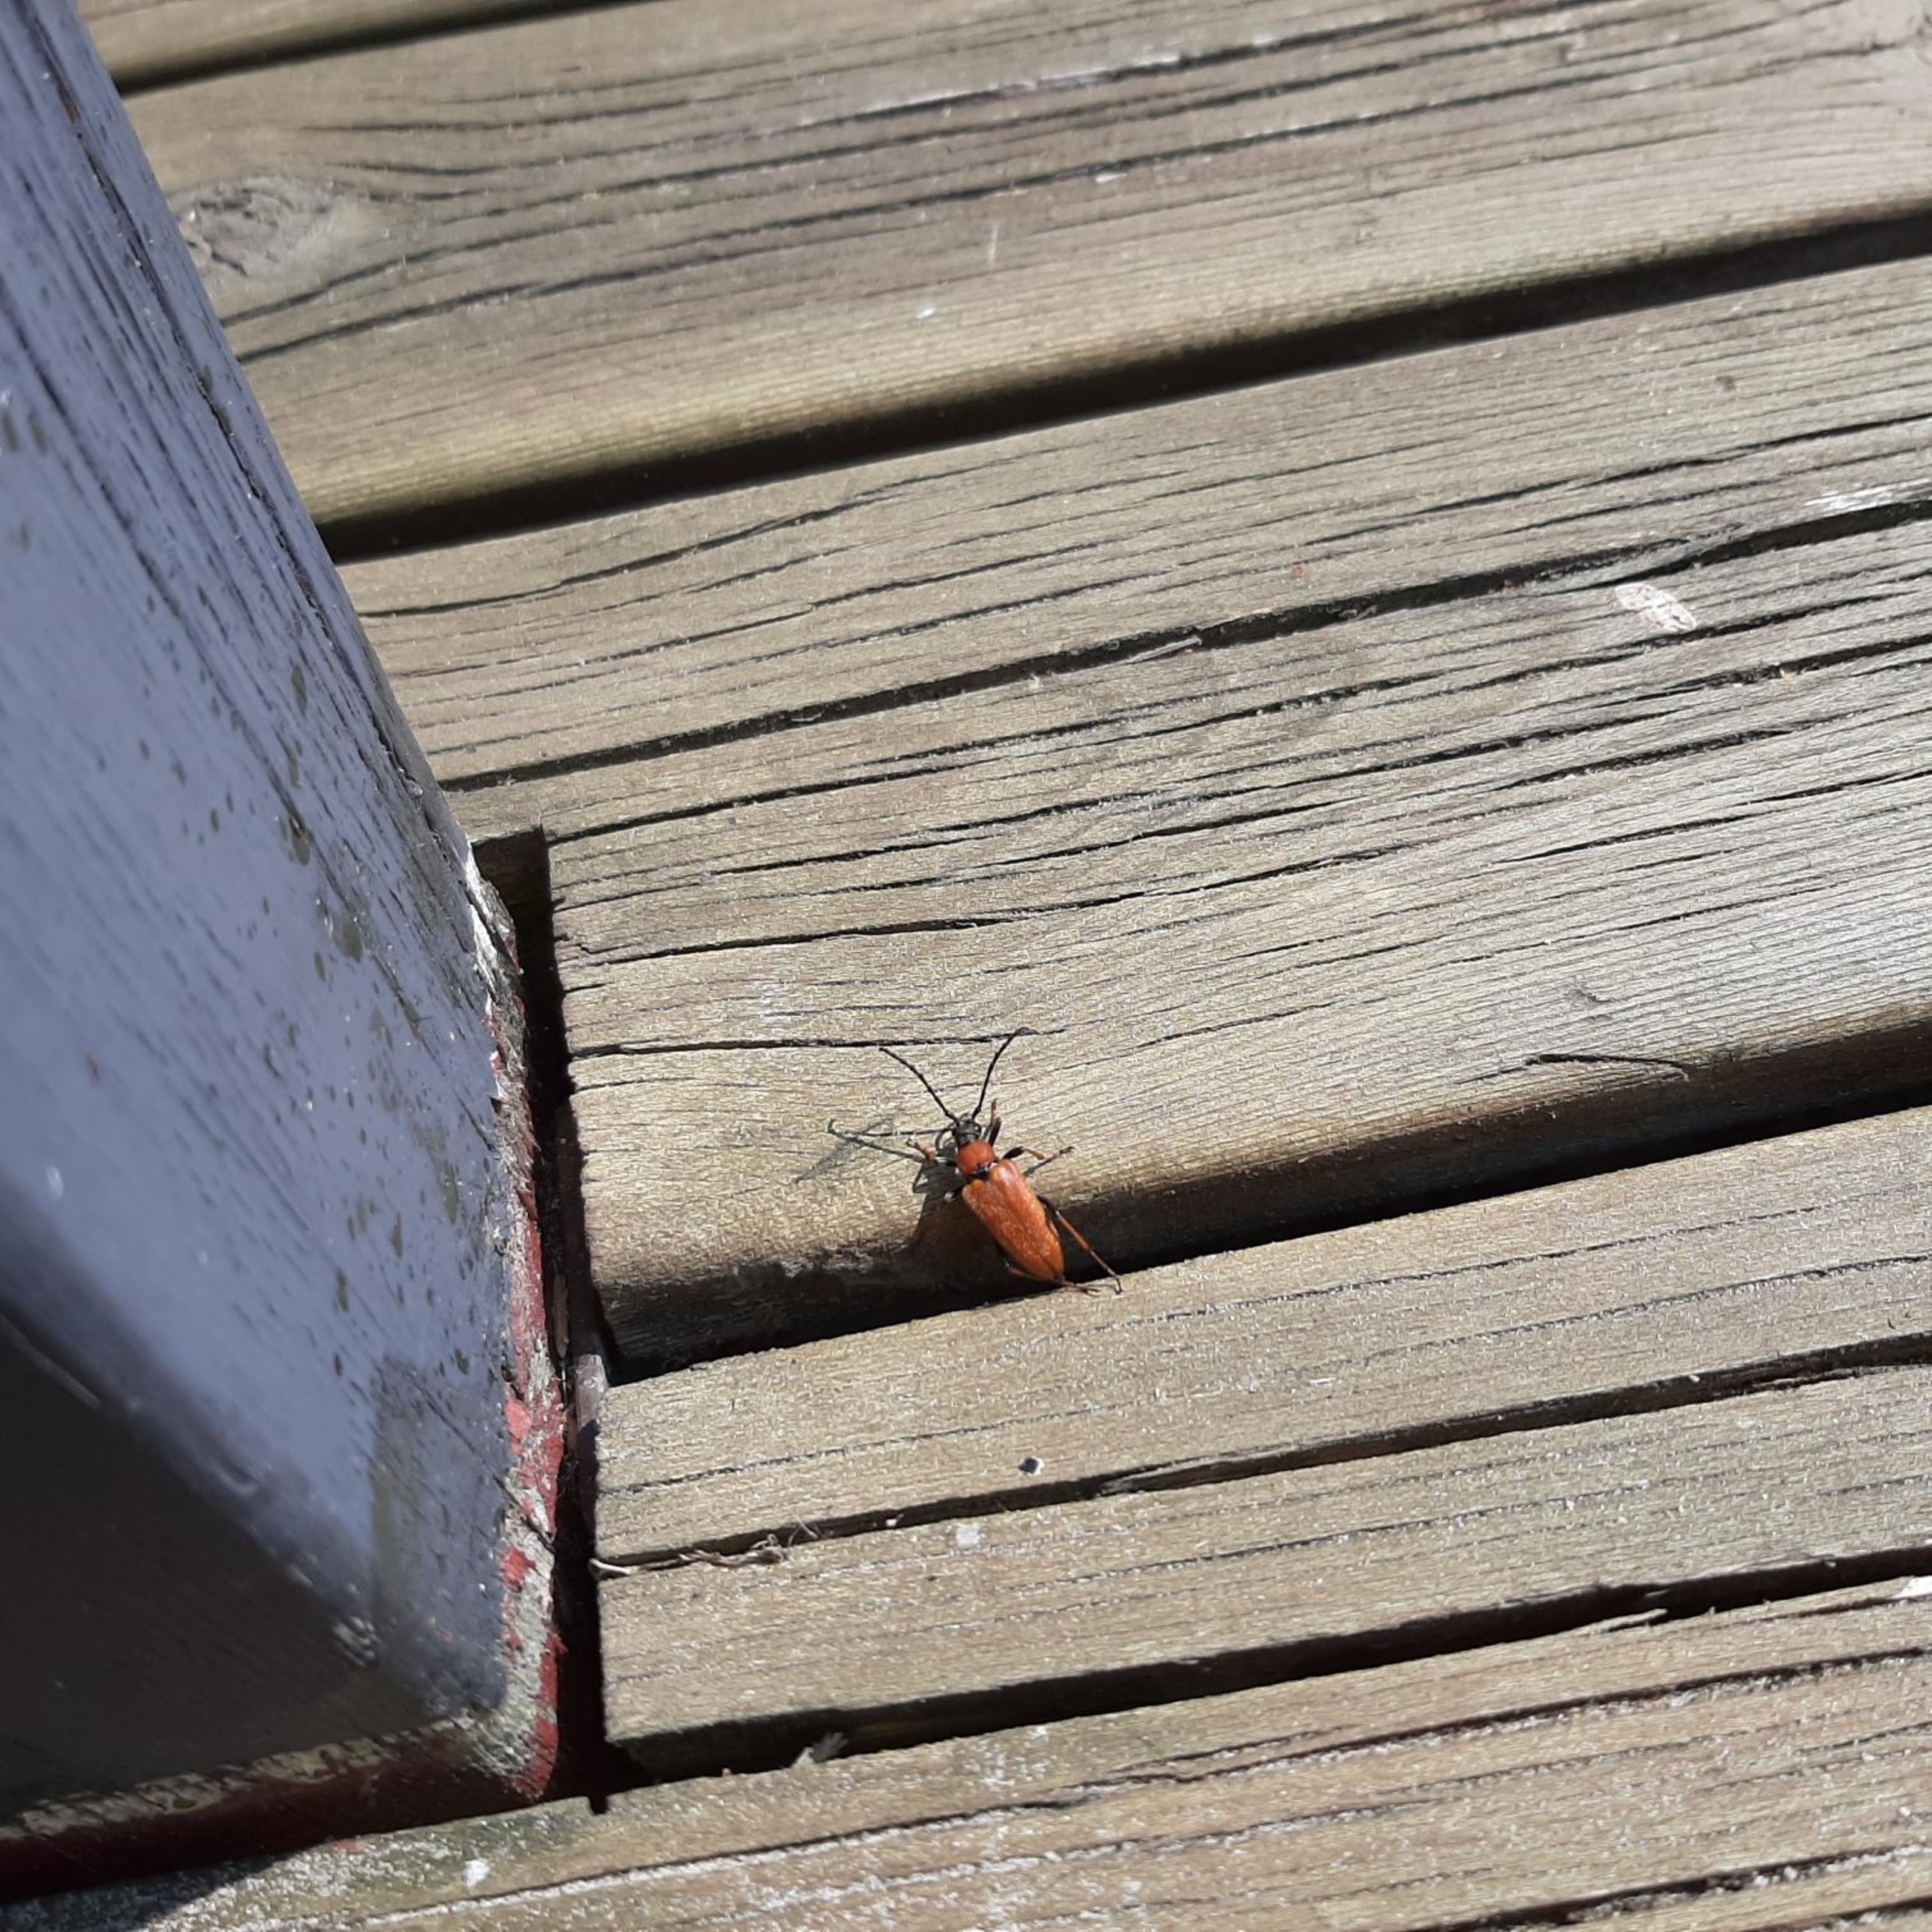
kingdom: Animalia
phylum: Arthropoda
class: Insecta
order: Coleoptera
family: Cerambycidae
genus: Stictoleptura
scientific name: Stictoleptura rubra
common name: Rød blomsterbuk
